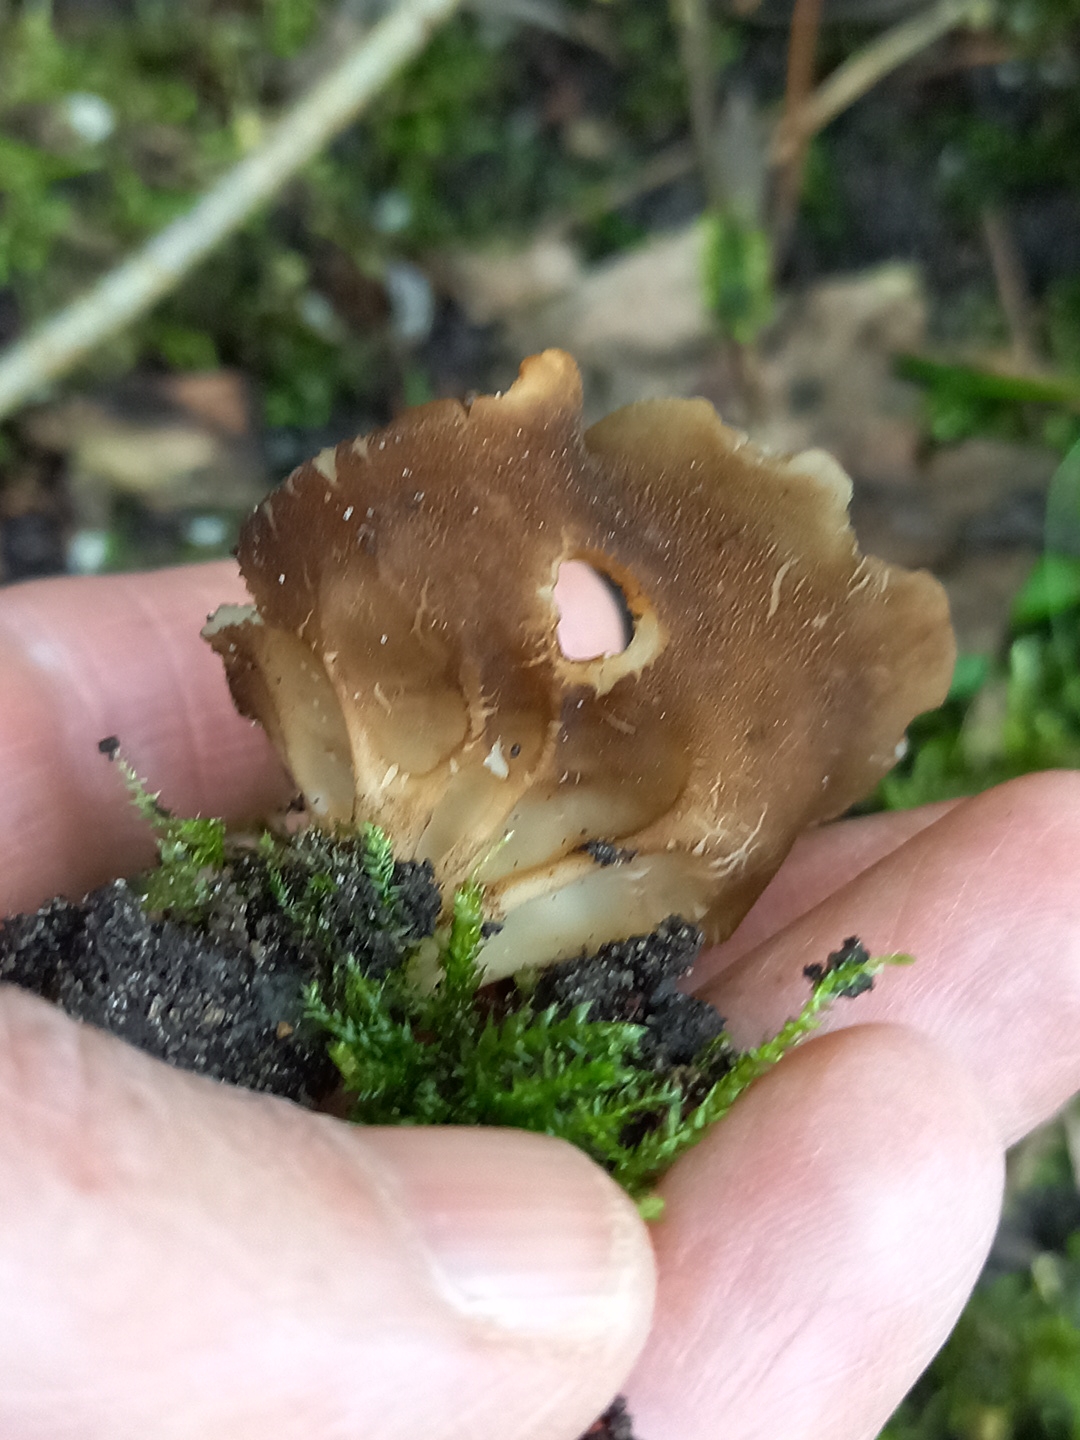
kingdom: Fungi
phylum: Ascomycota
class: Pezizomycetes
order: Pezizales
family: Helvellaceae
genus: Helvella
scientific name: Helvella acetabulum
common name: pokal-foldhat
